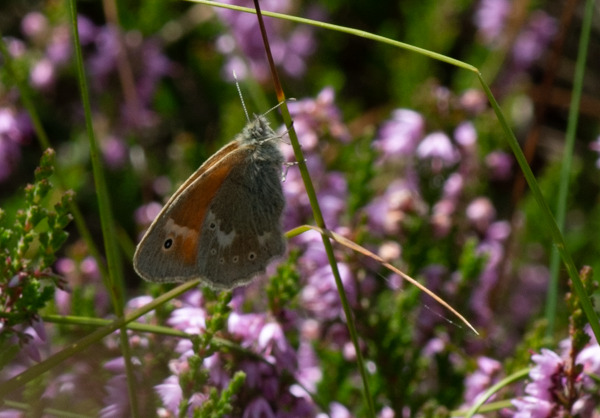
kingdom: Animalia
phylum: Arthropoda
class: Insecta
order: Lepidoptera
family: Nymphalidae
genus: Coenonympha
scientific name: Coenonympha tullia
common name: Moserandøje
